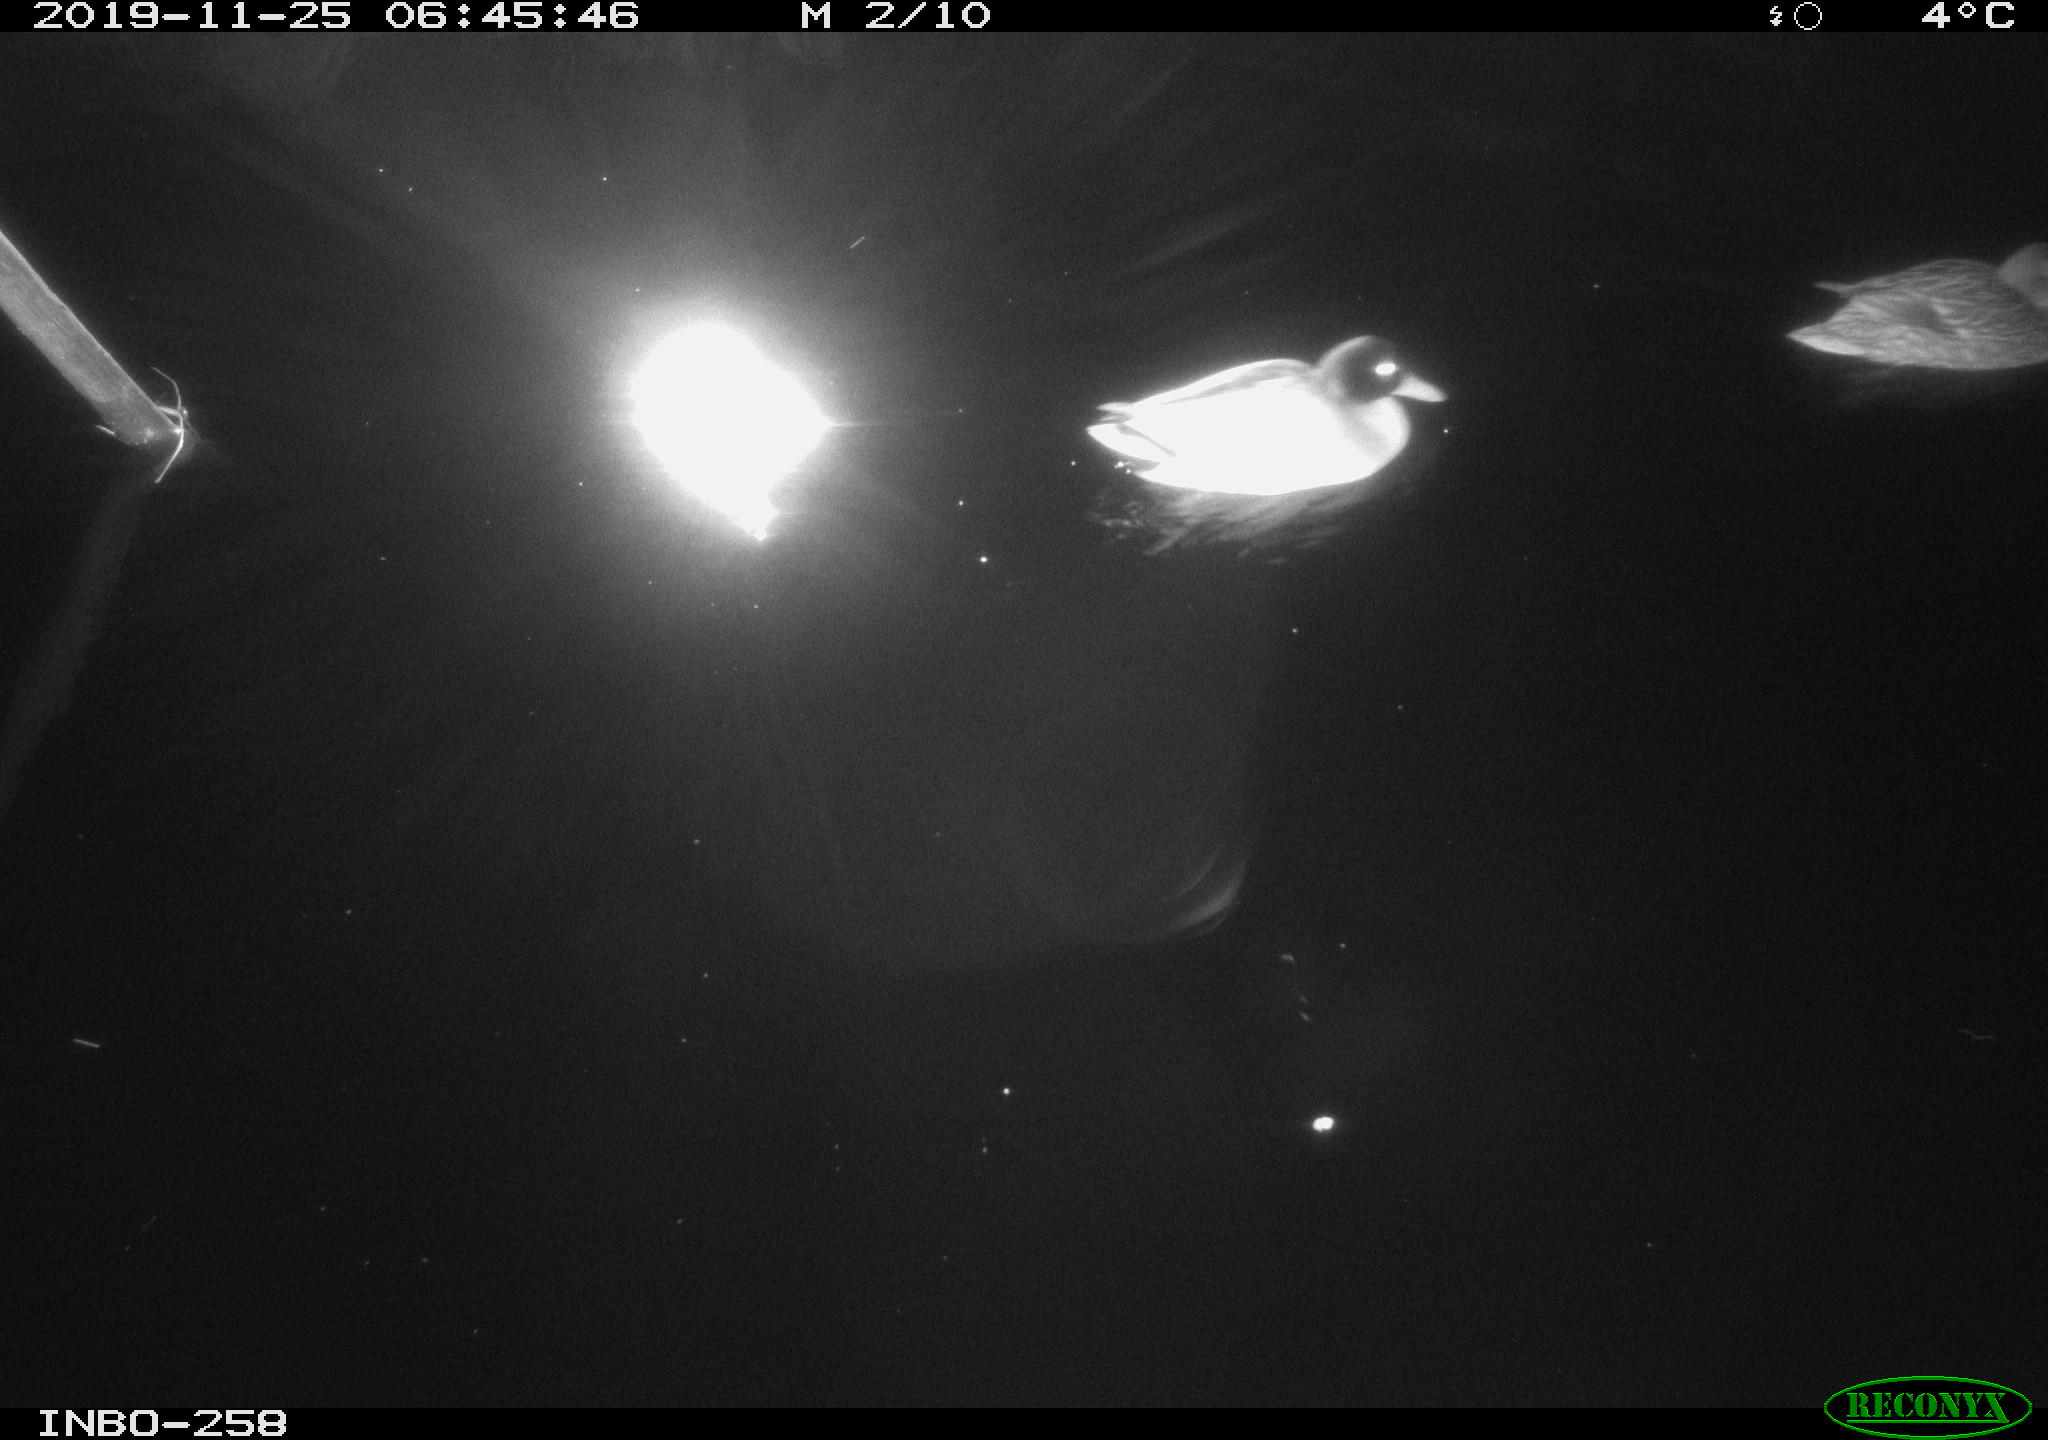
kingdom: Animalia
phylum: Chordata
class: Aves
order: Anseriformes
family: Anatidae
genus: Anas
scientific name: Anas platyrhynchos
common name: Mallard
